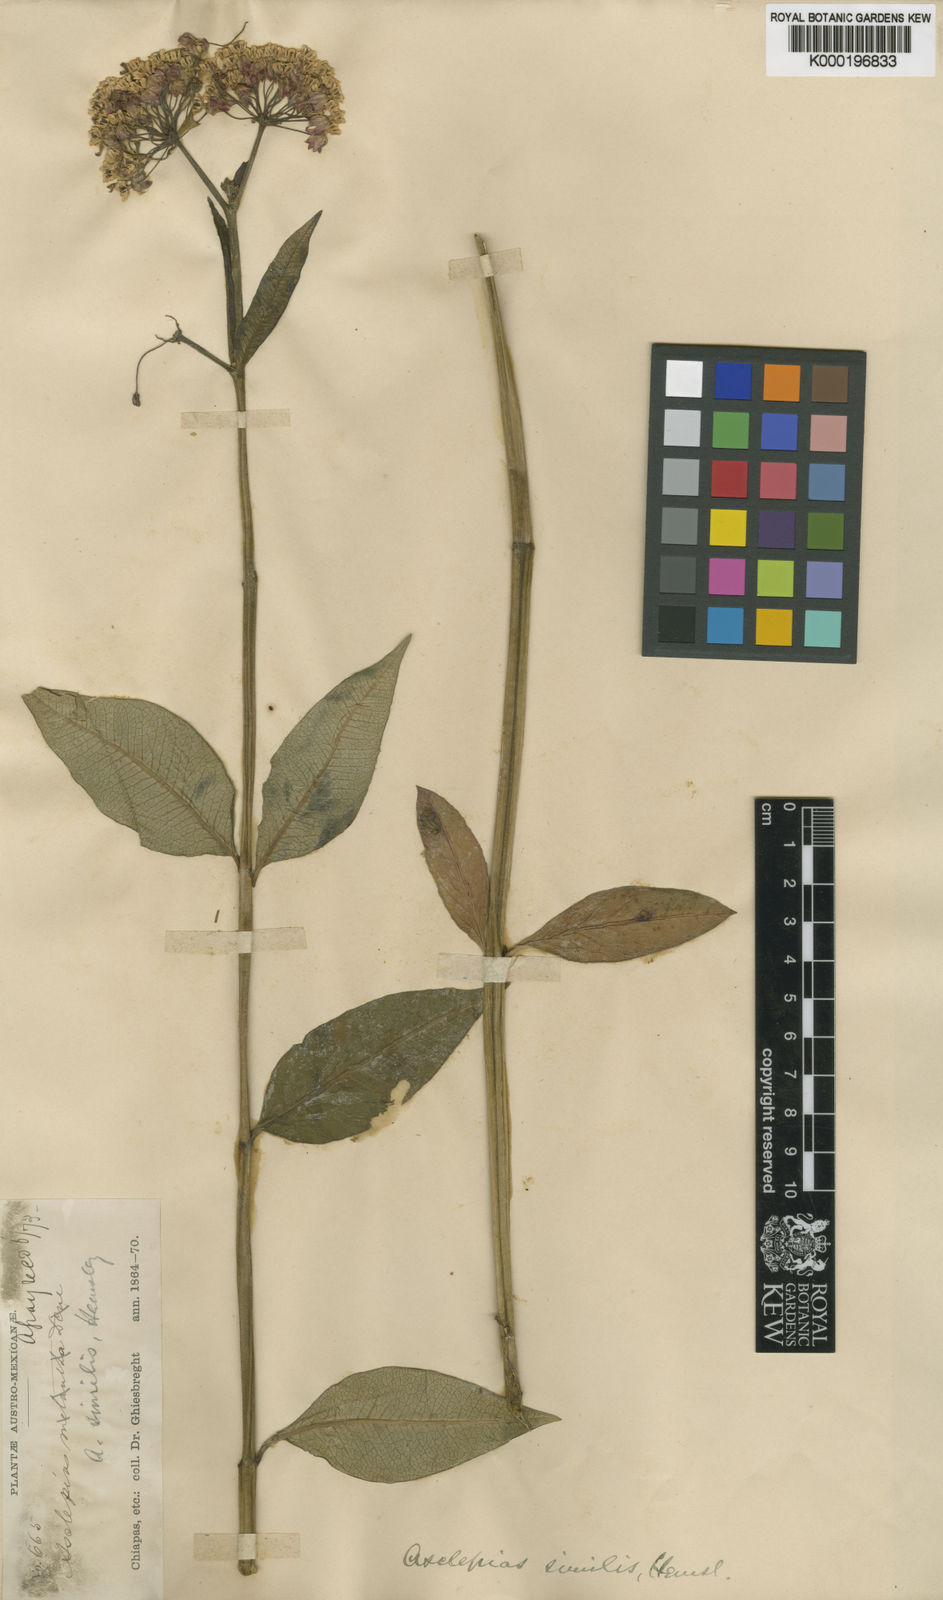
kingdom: Plantae
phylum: Tracheophyta
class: Magnoliopsida
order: Gentianales
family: Apocynaceae
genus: Asclepias
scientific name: Asclepias similis
